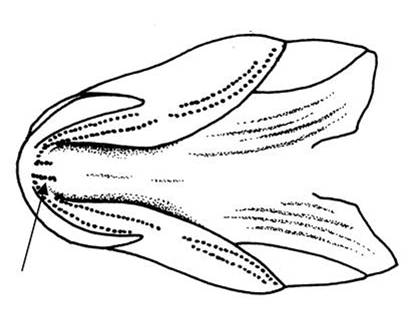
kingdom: Animalia
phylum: Chordata
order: Perciformes
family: Gobiidae
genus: Cryptocentrus
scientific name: Cryptocentrus leptocephalus
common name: Leptocephalus prawn-goby
